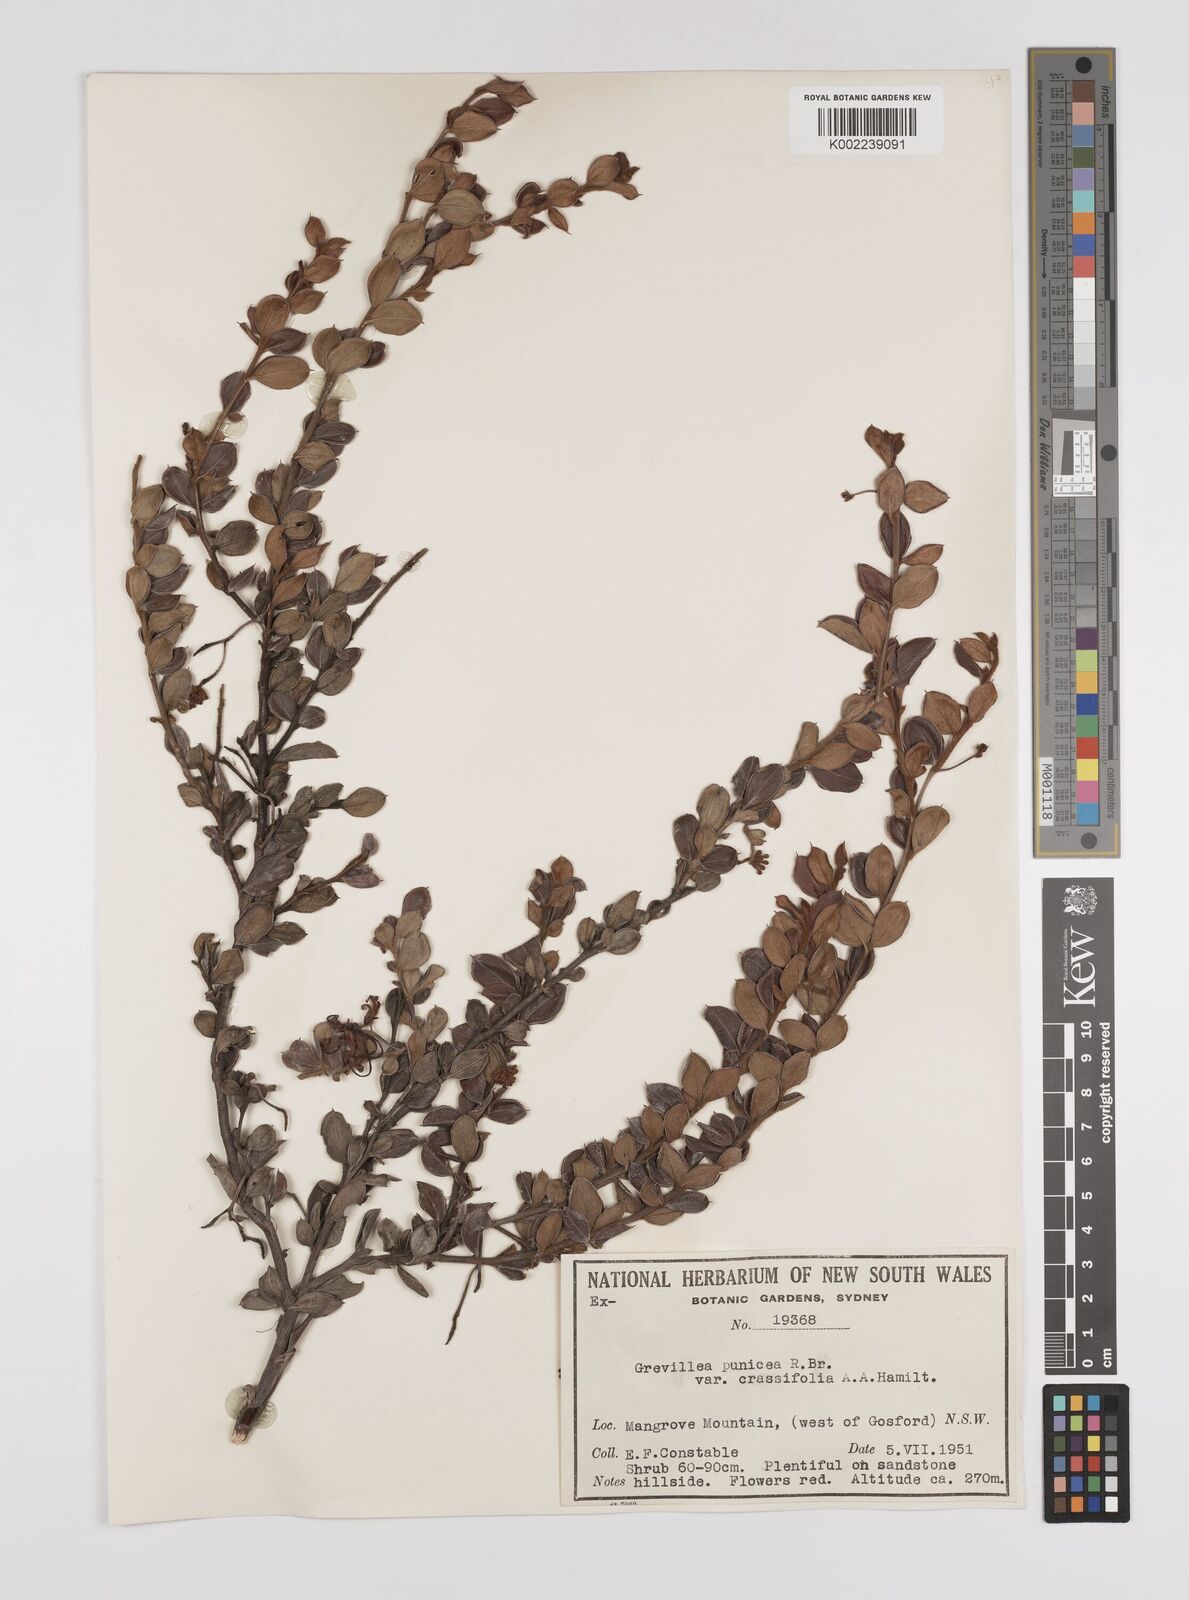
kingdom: Plantae
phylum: Tracheophyta
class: Magnoliopsida
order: Proteales
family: Proteaceae
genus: Grevillea
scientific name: Grevillea speciosa
